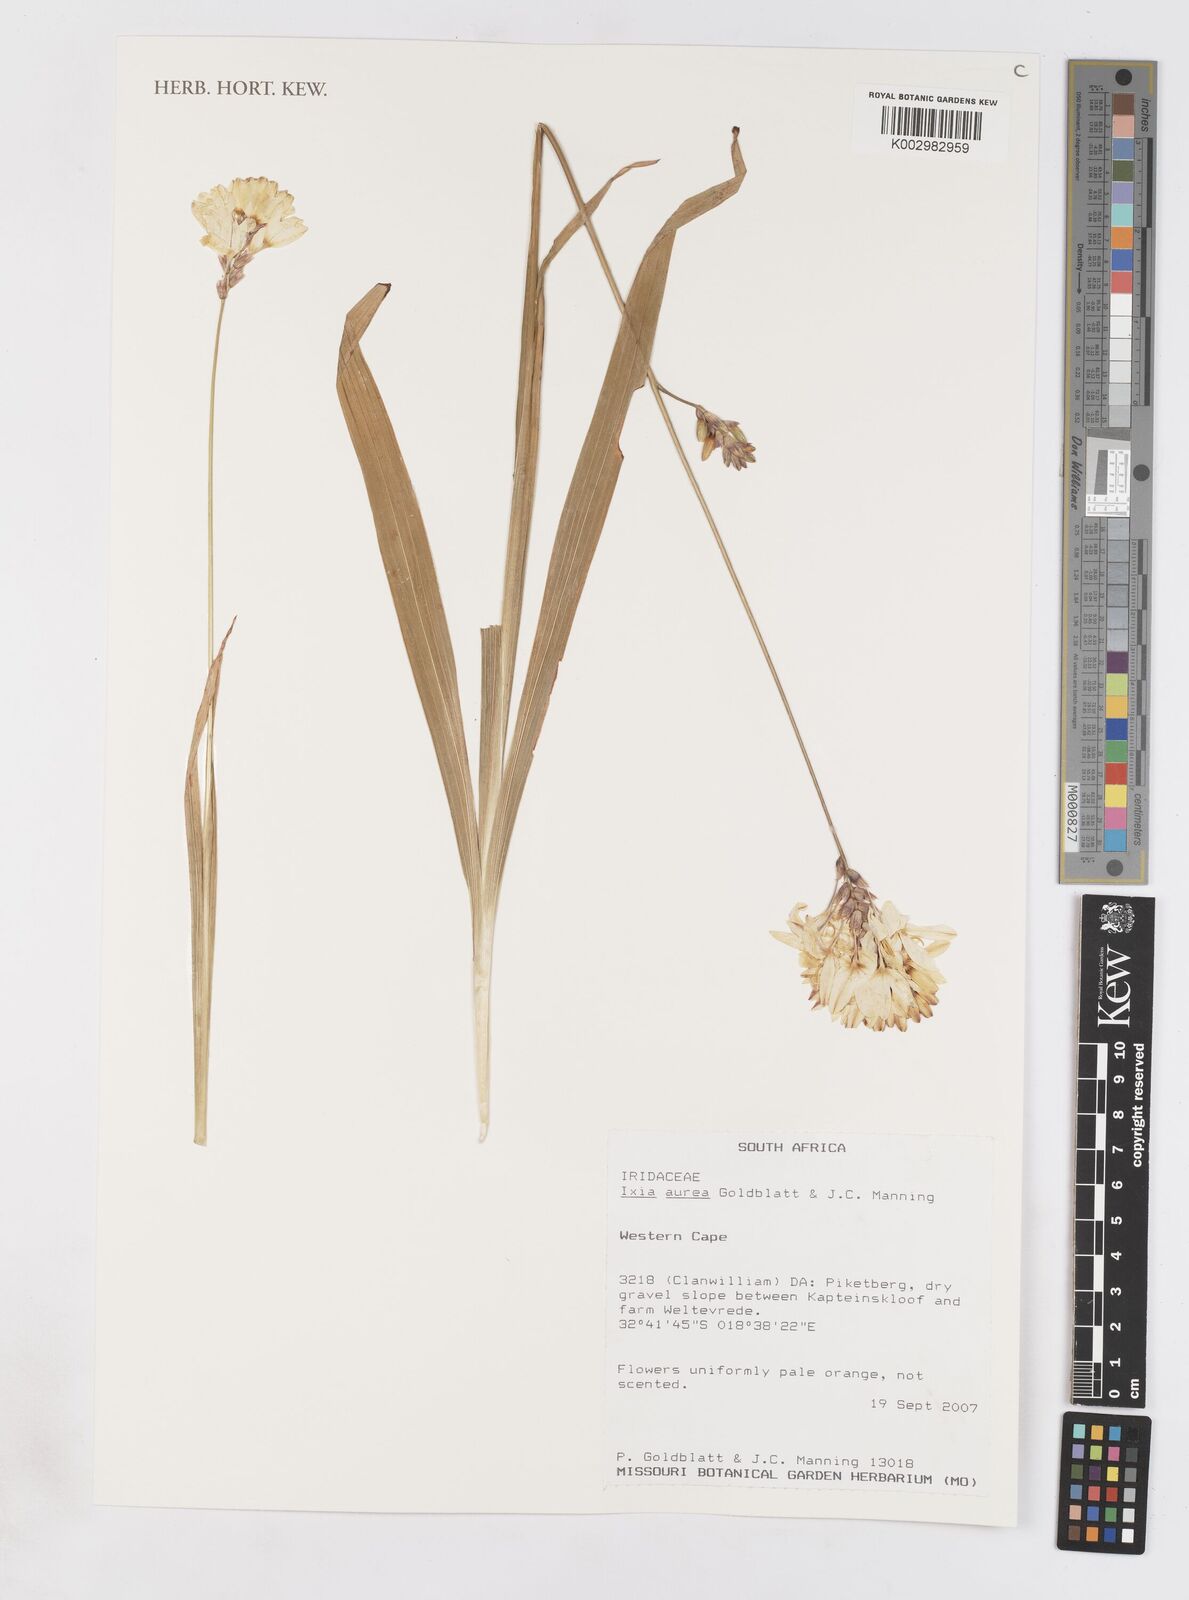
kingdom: Plantae
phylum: Tracheophyta
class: Liliopsida
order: Asparagales
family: Iridaceae
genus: Ixia
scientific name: Ixia aurea
